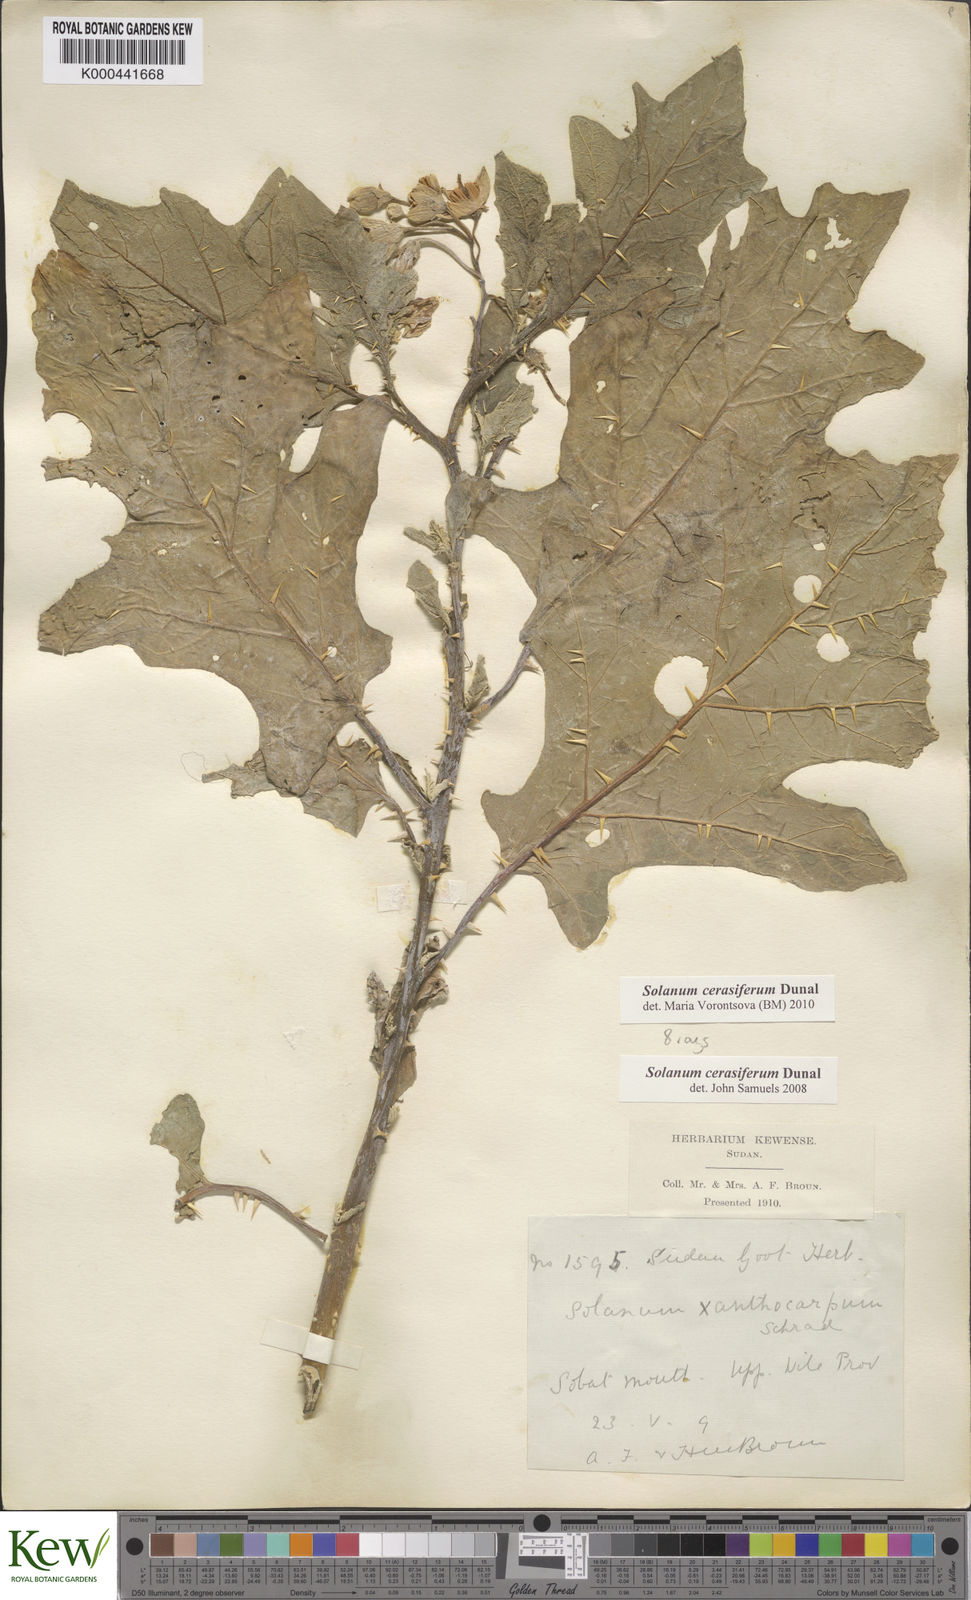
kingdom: Plantae
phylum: Tracheophyta
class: Magnoliopsida
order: Solanales
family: Solanaceae
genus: Solanum
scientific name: Solanum cerasiferum
